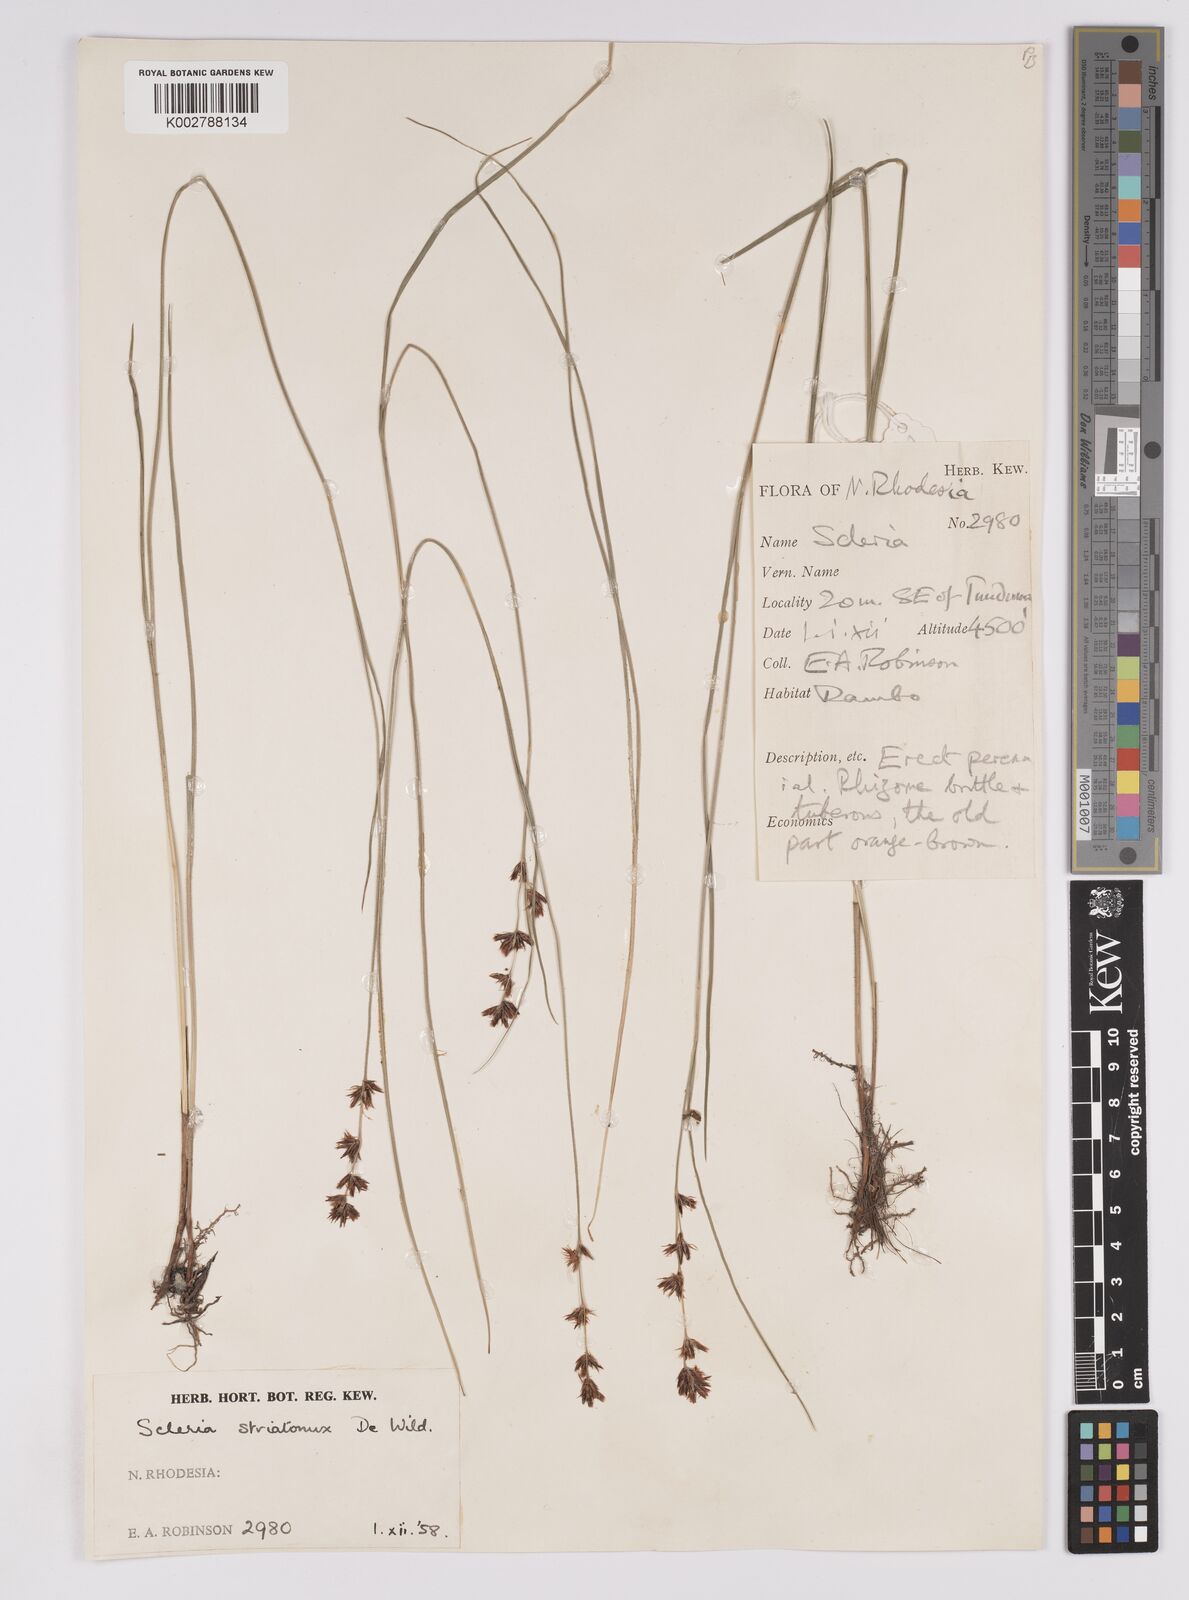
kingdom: Plantae
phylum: Tracheophyta
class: Liliopsida
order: Poales
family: Cyperaceae
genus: Scleria
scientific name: Scleria woodii
